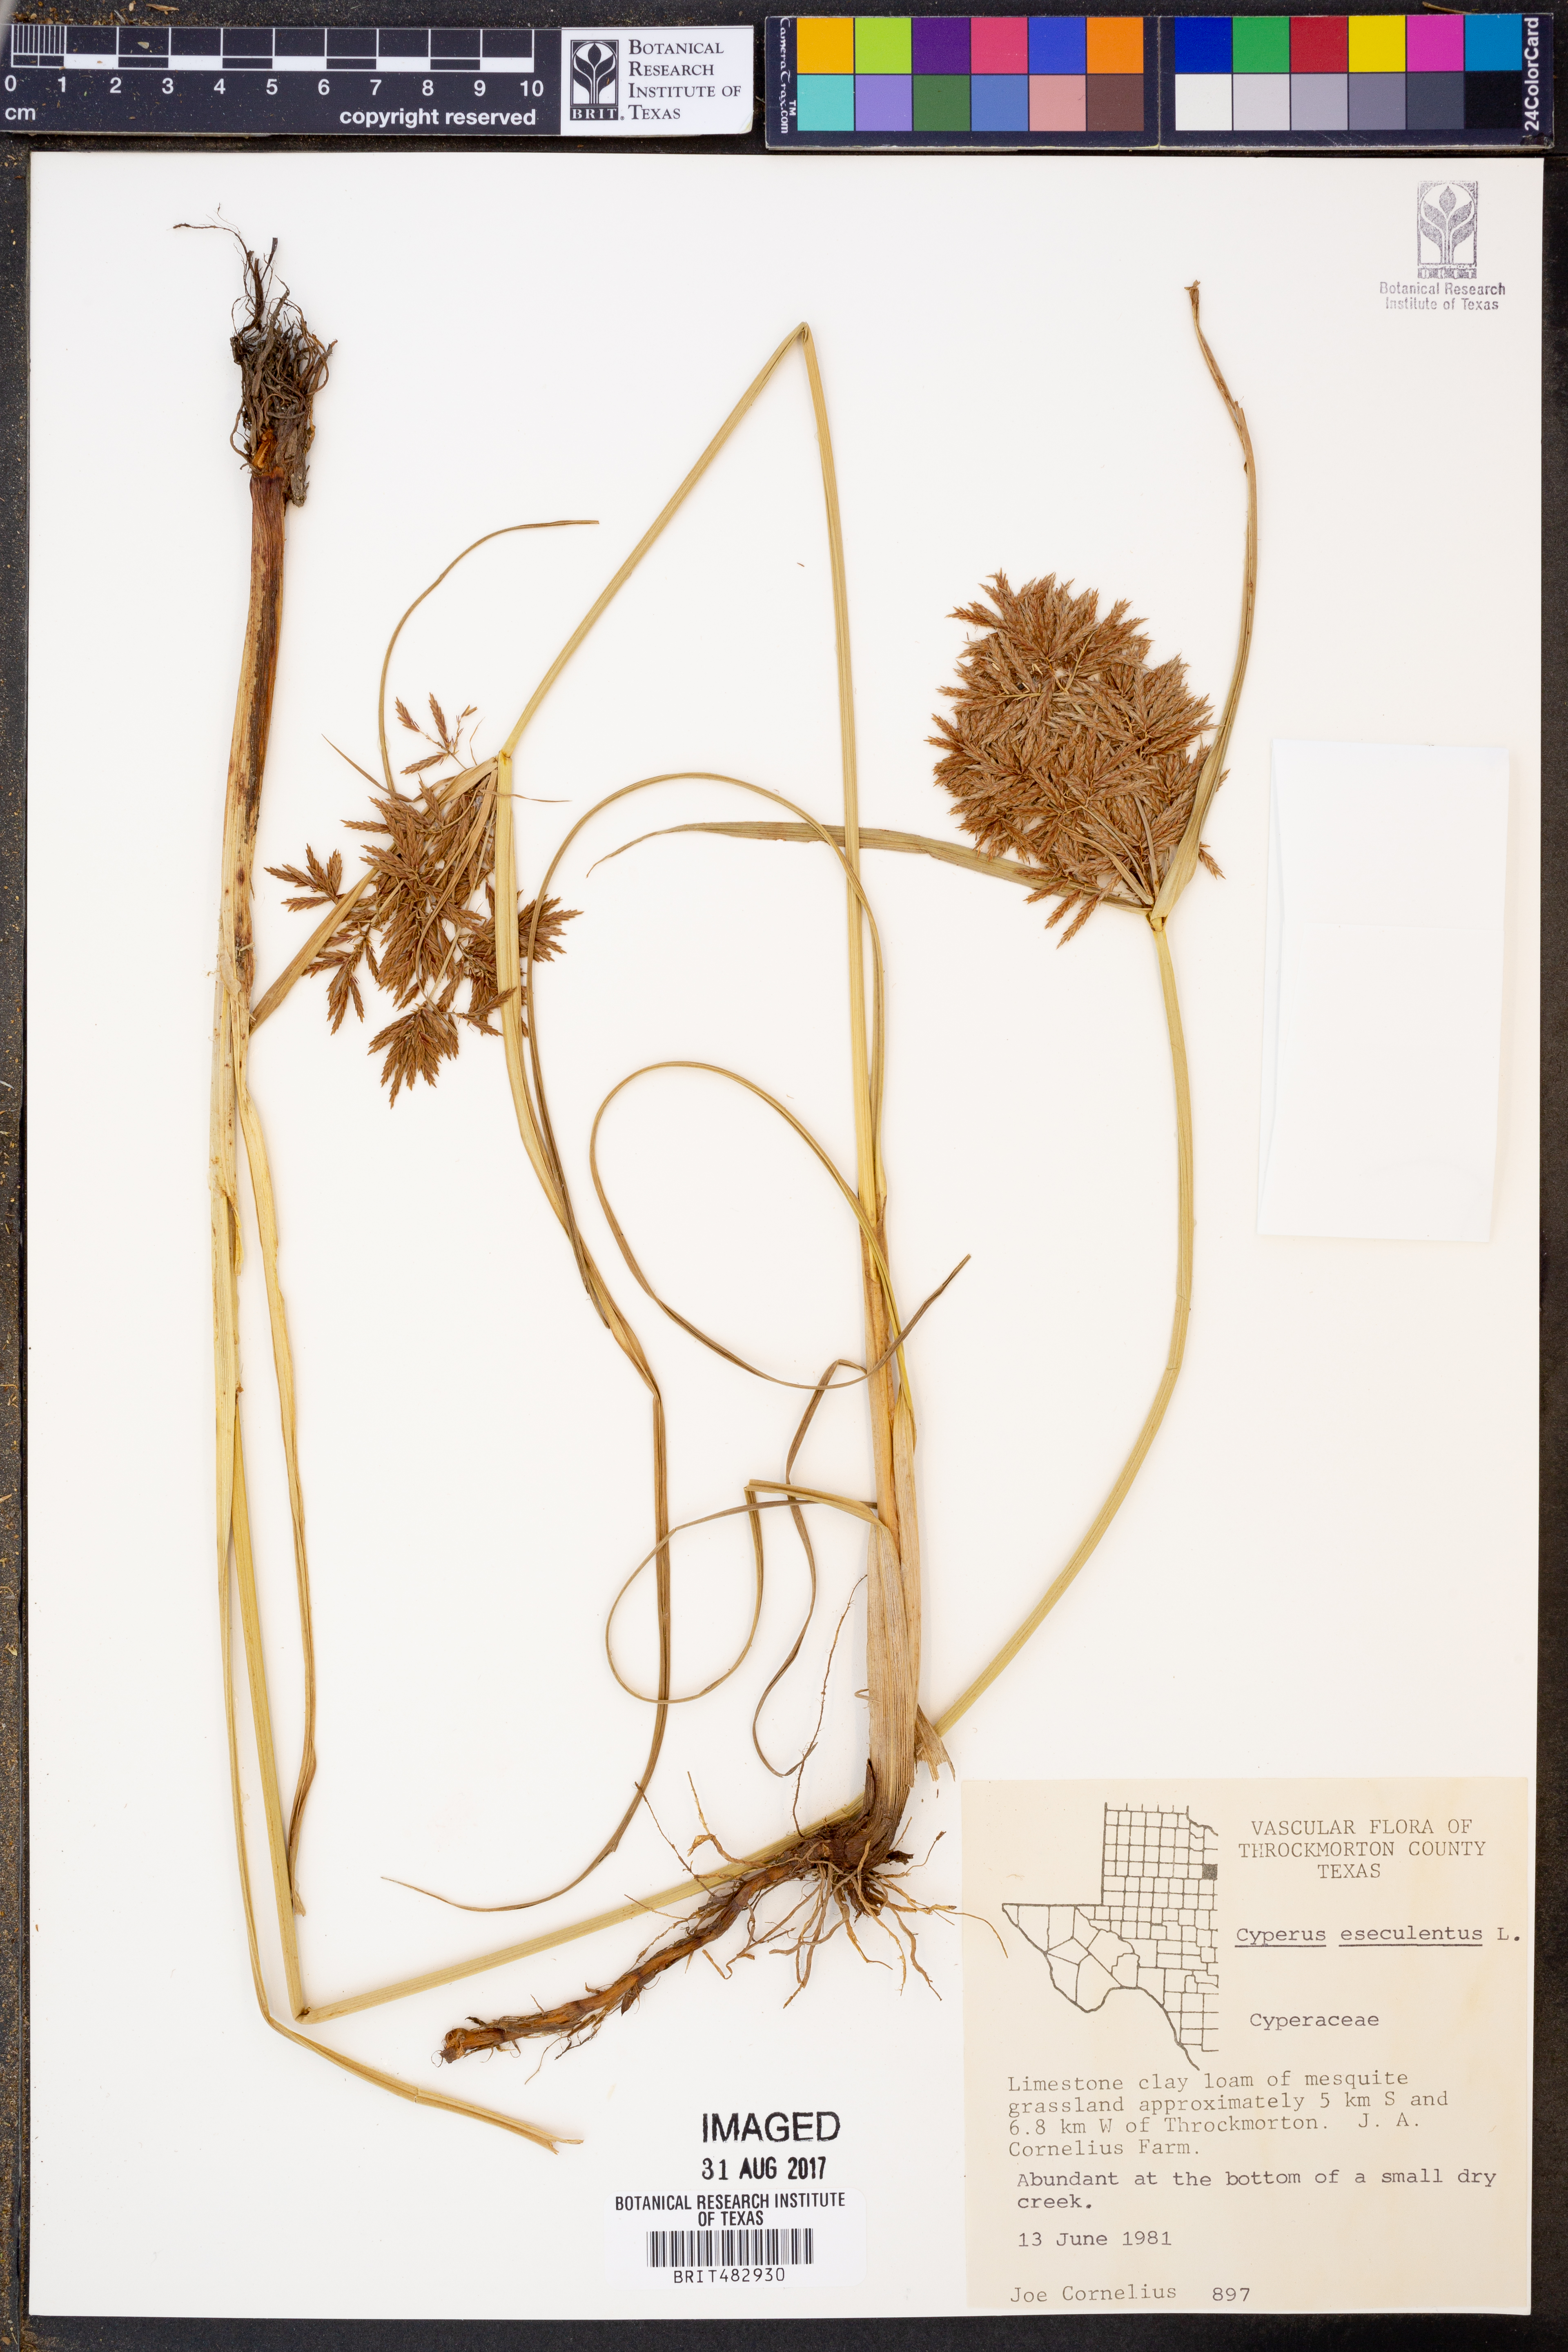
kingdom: Plantae
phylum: Tracheophyta
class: Liliopsida
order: Poales
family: Cyperaceae
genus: Cyperus
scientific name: Cyperus esculentus
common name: Yellow nutsedge
